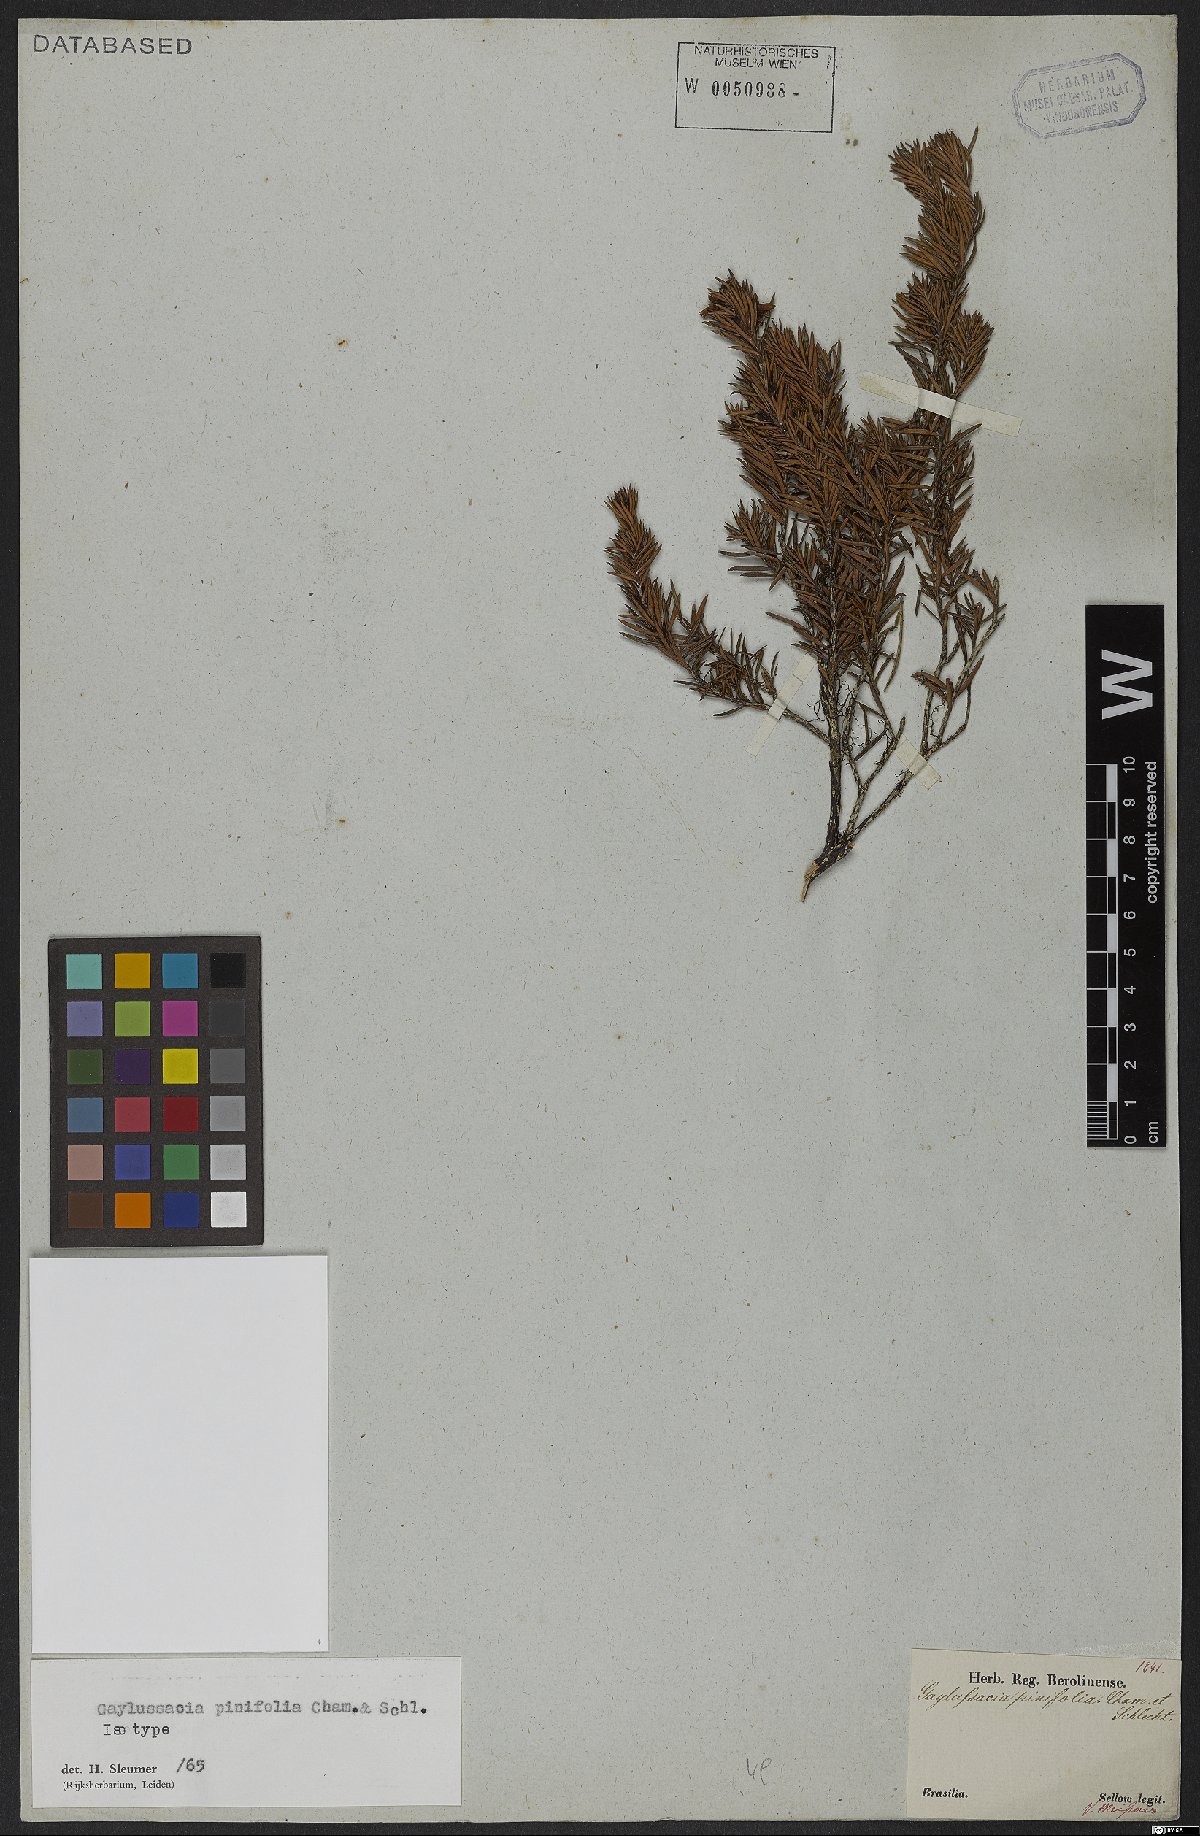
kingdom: Plantae
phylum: Tracheophyta
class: Magnoliopsida
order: Ericales
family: Ericaceae
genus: Gaylussacia
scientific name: Gaylussacia pinifolia
